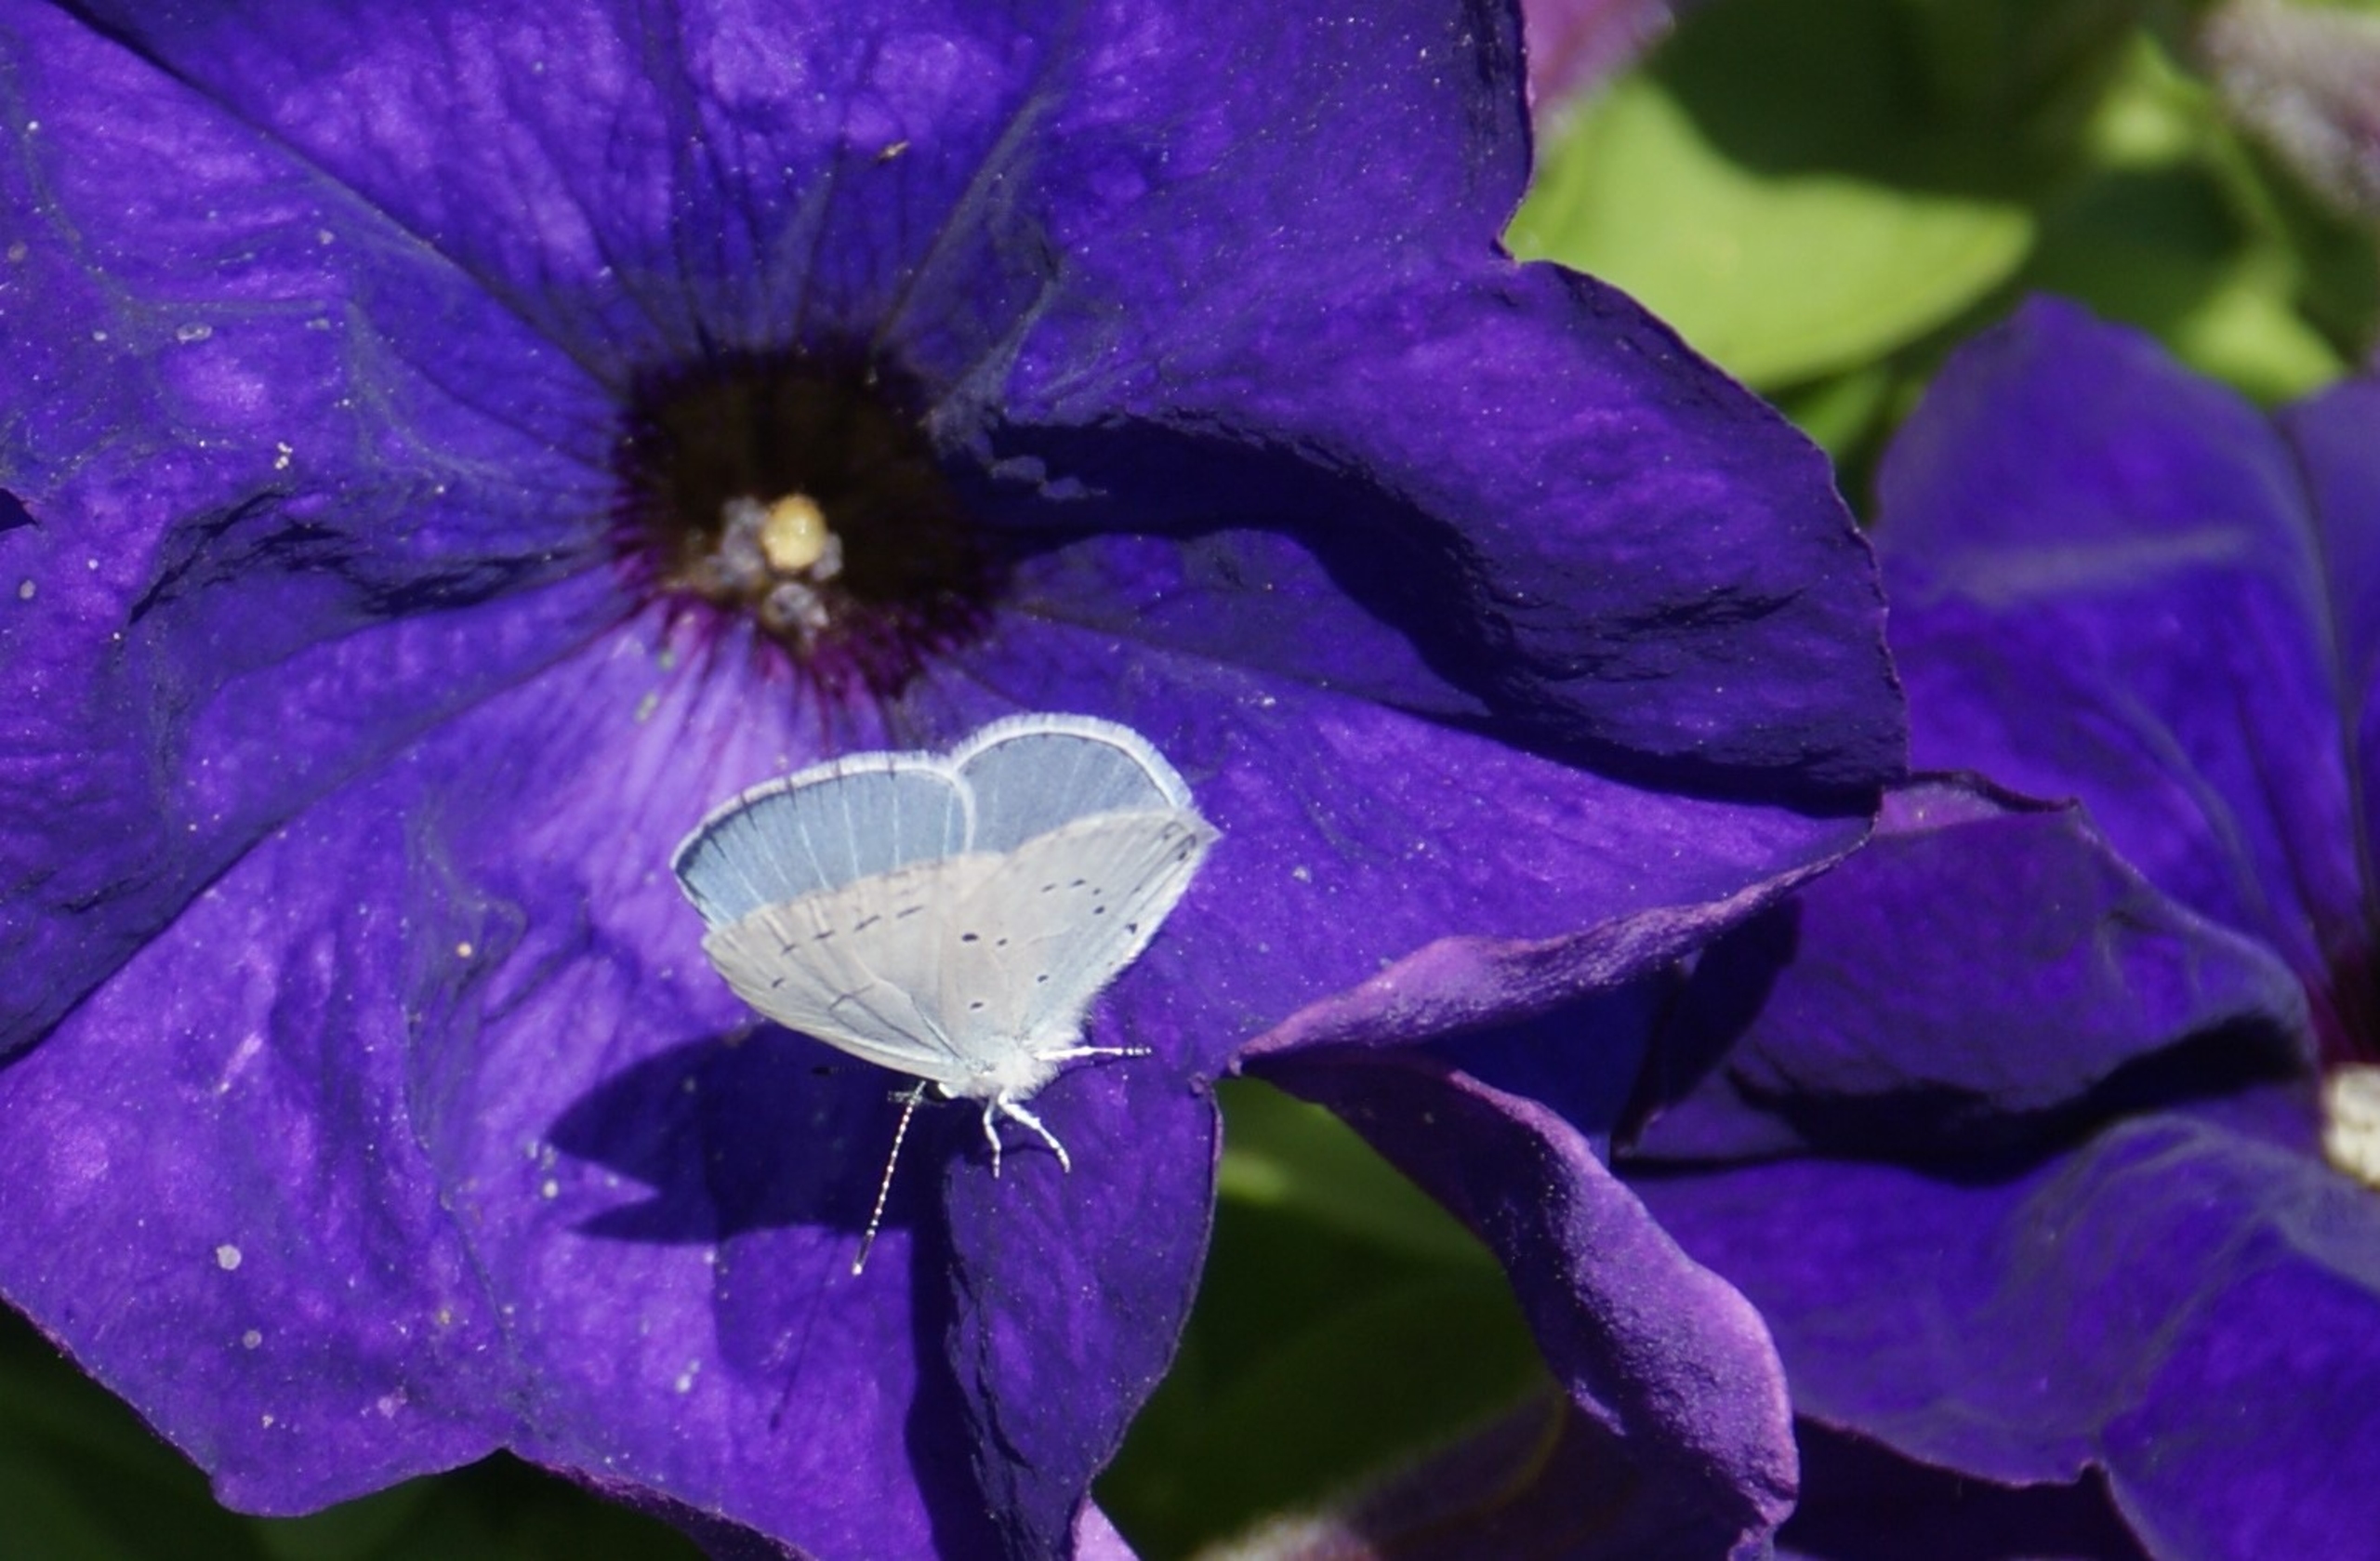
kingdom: Animalia
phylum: Arthropoda
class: Insecta
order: Lepidoptera
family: Lycaenidae
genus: Celastrina
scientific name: Celastrina argiolus
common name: Skovblåfugl
